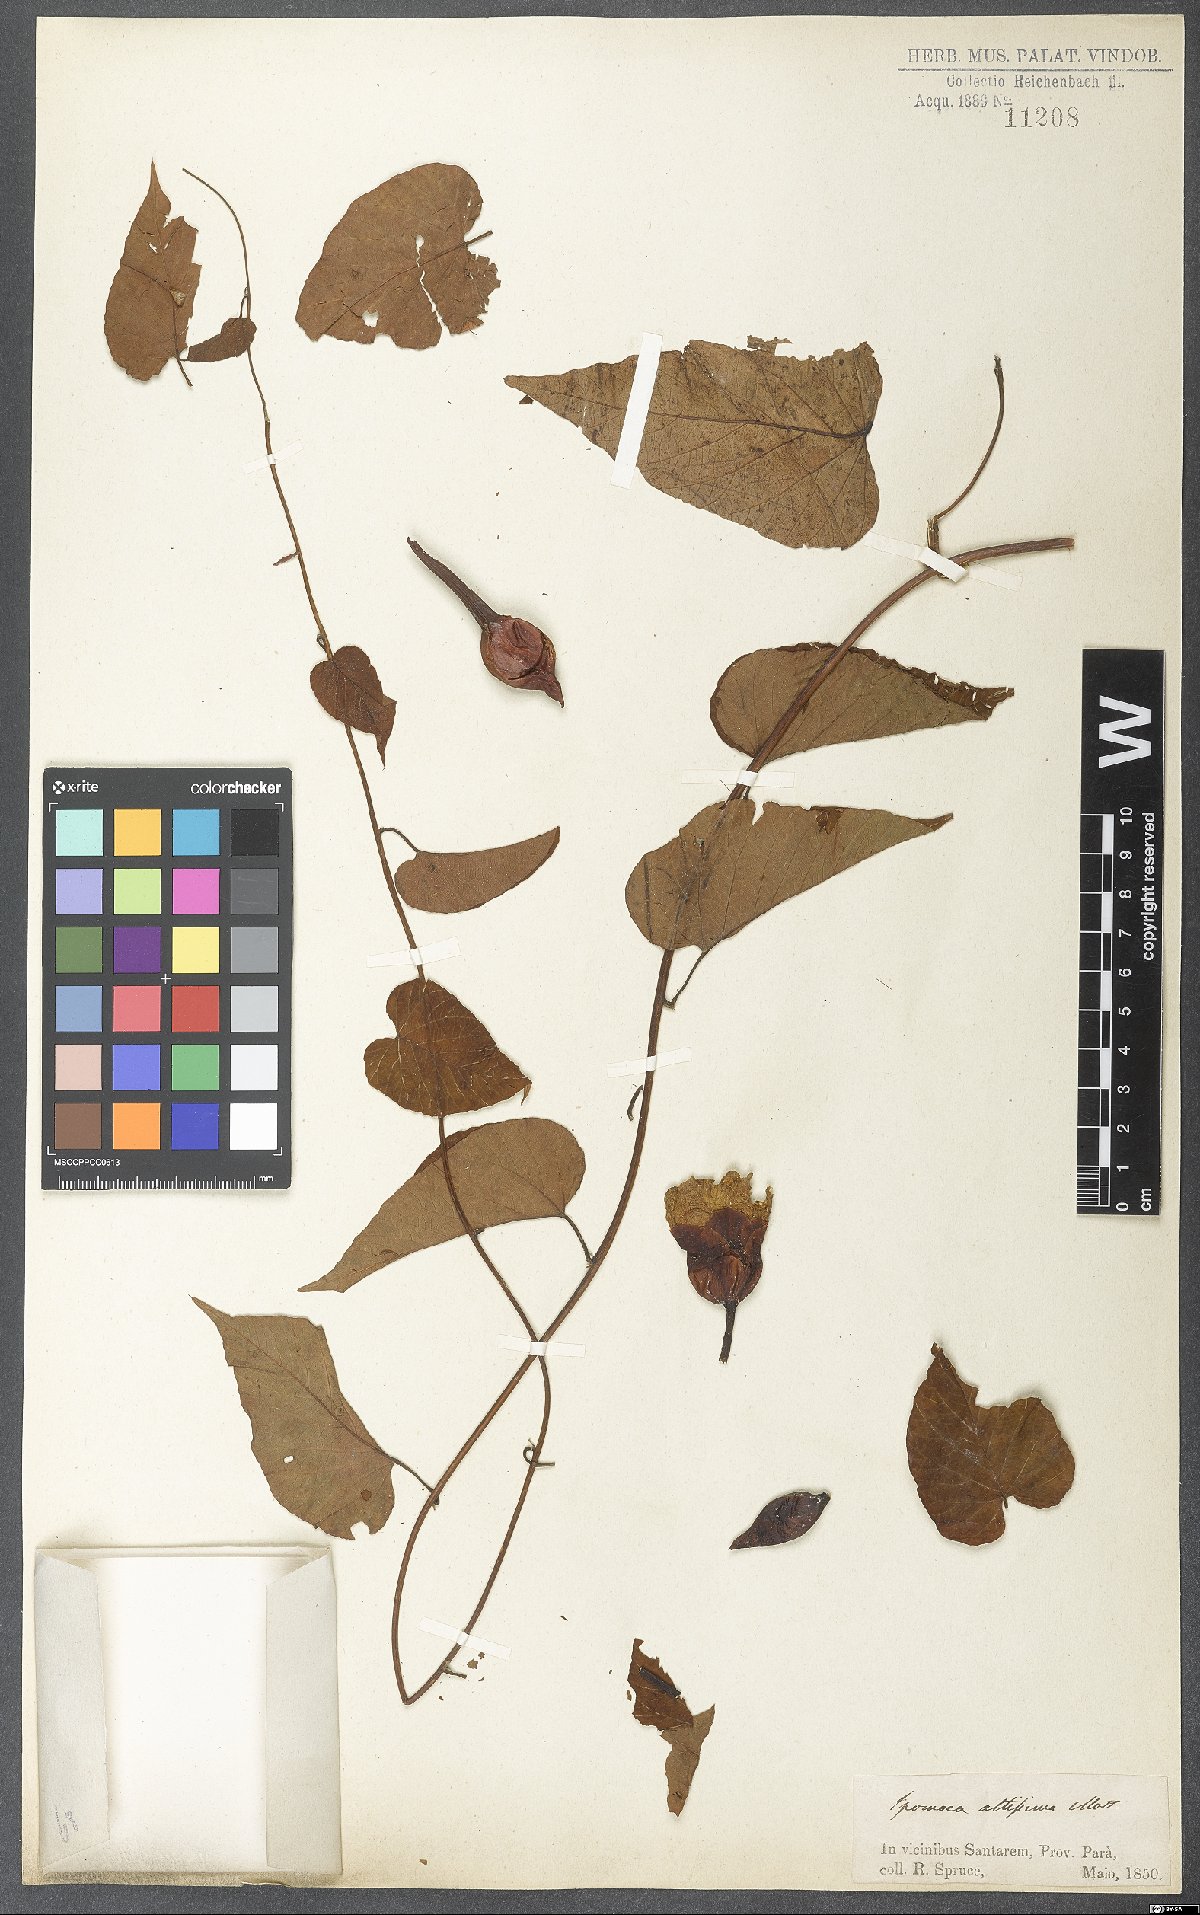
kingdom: Plantae
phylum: Tracheophyta
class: Magnoliopsida
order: Solanales
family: Convolvulaceae
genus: Ipomoea
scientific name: Ipomoea racemosa
